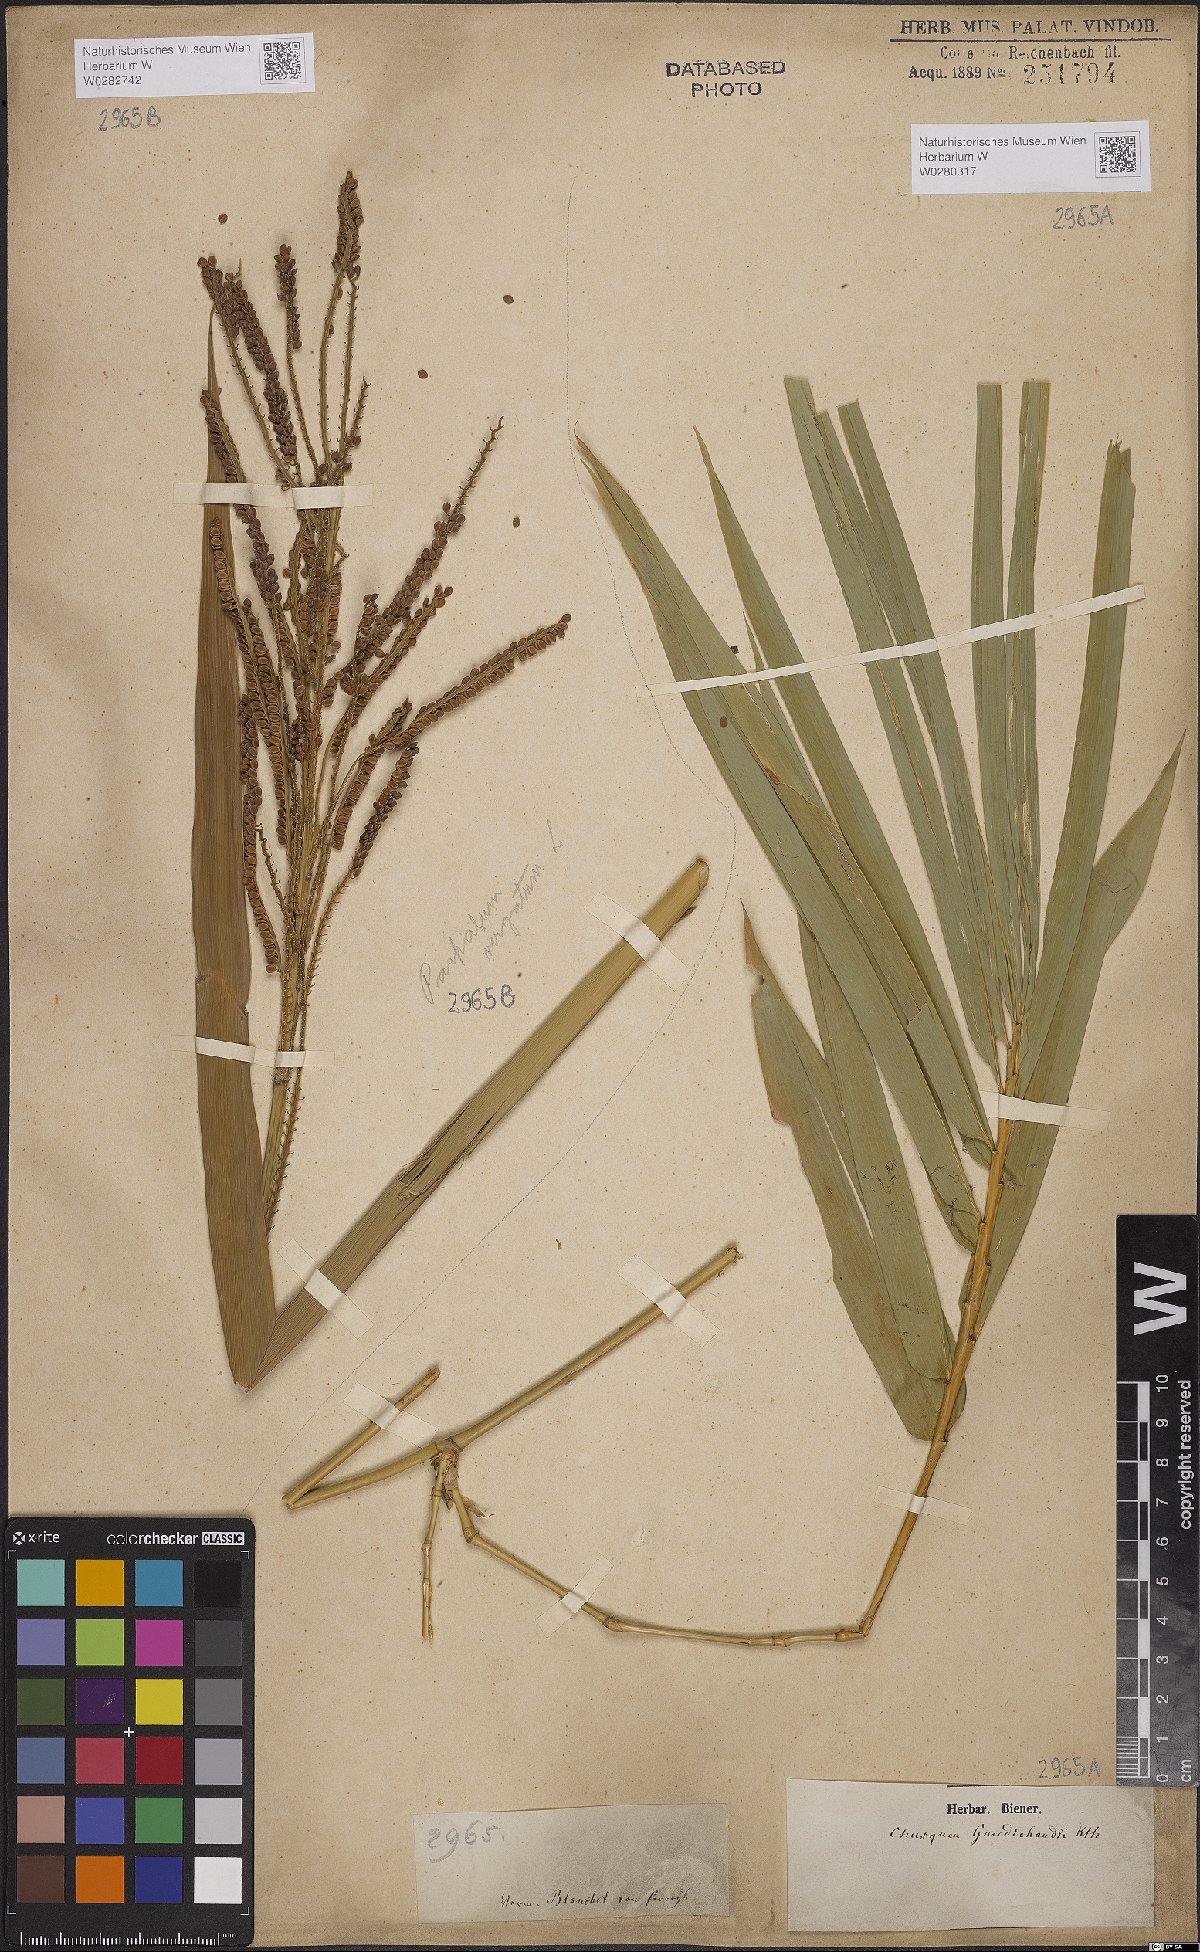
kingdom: Plantae
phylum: Tracheophyta
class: Liliopsida
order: Poales
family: Poaceae
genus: Paspalum
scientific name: Paspalum virgatum
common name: Talquezal
